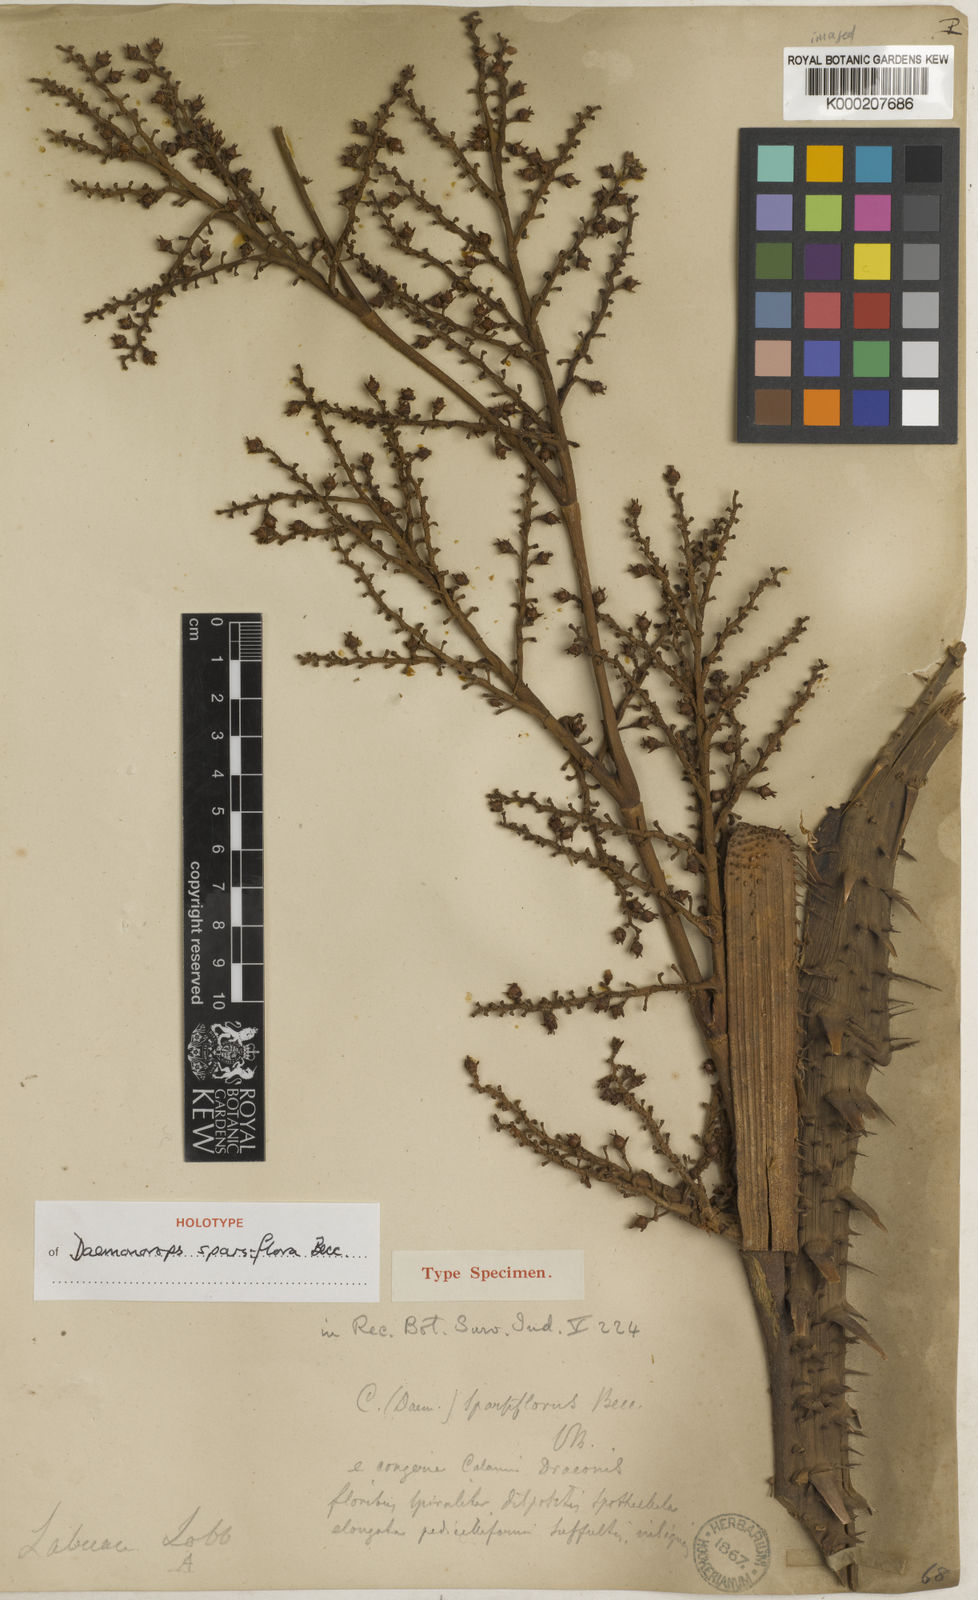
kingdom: Plantae
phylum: Tracheophyta
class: Liliopsida
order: Arecales
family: Arecaceae
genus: Calamus
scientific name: Calamus sparsiflorus
